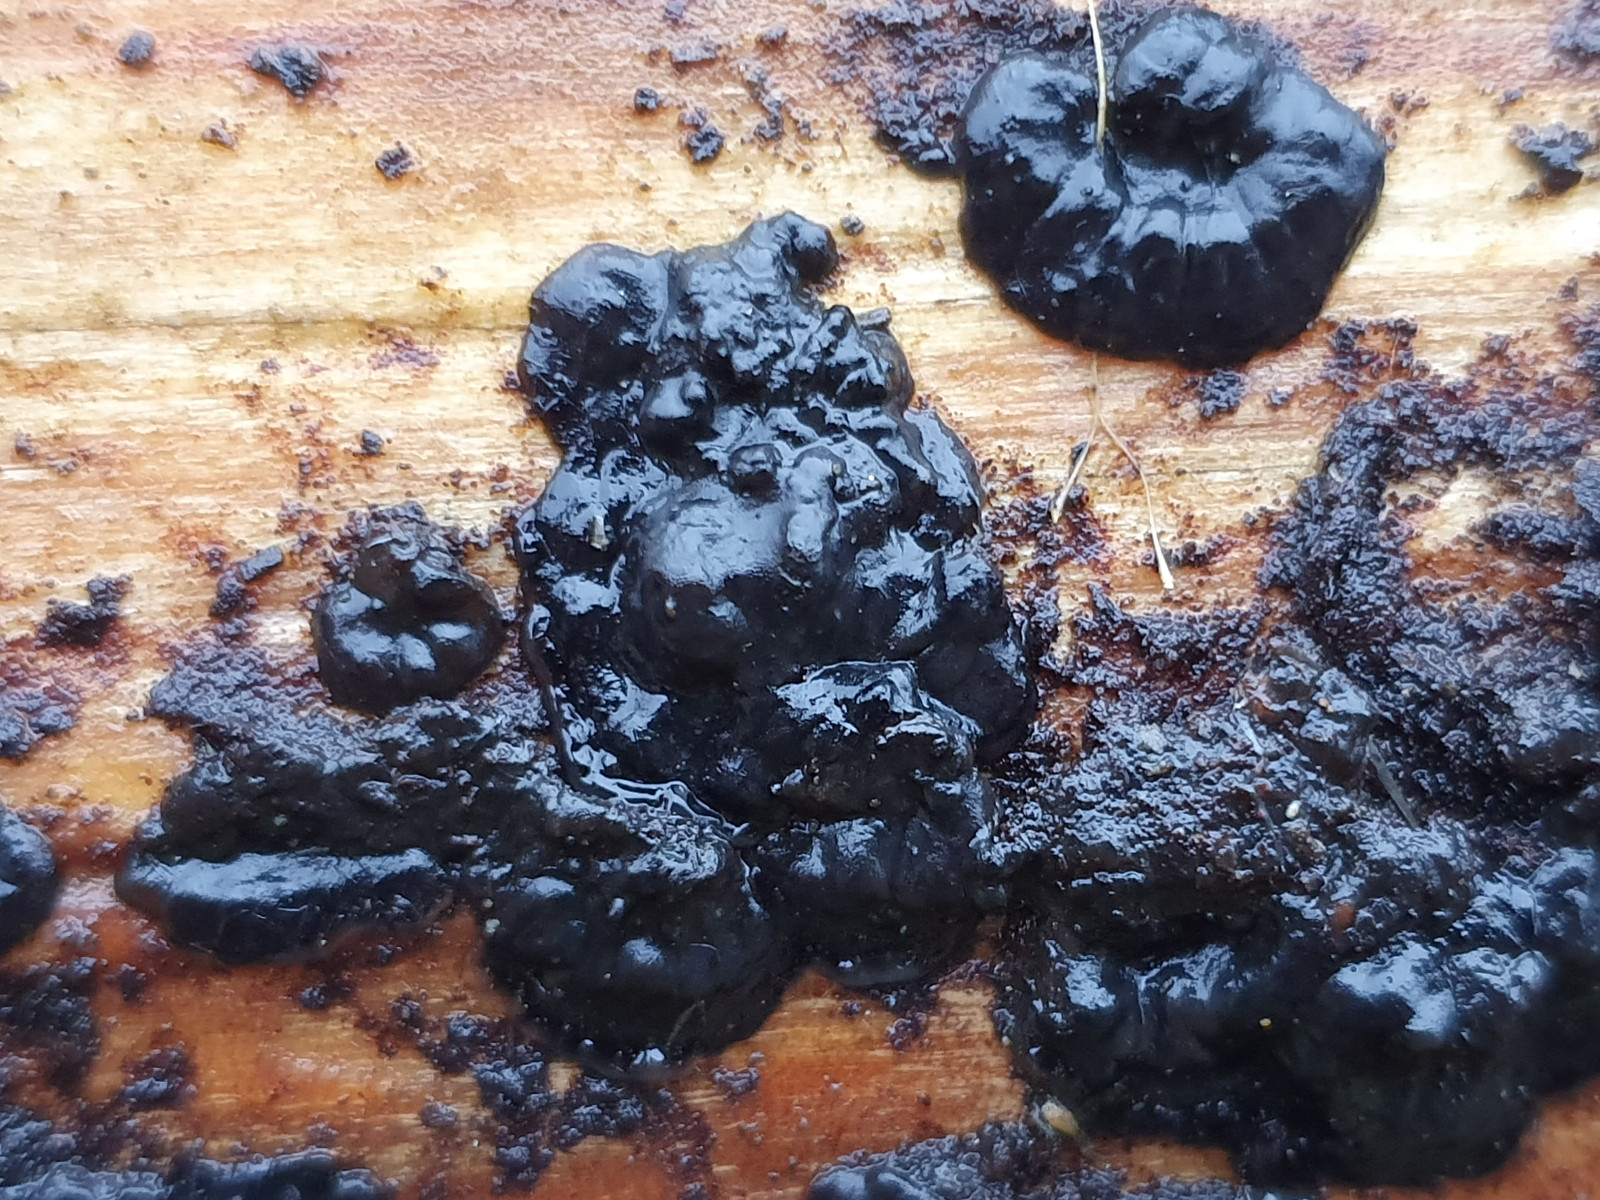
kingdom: Fungi
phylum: Basidiomycota
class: Agaricomycetes
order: Auriculariales
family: Auriculariaceae
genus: Exidia
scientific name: Exidia pithya
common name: gran-bævretop
